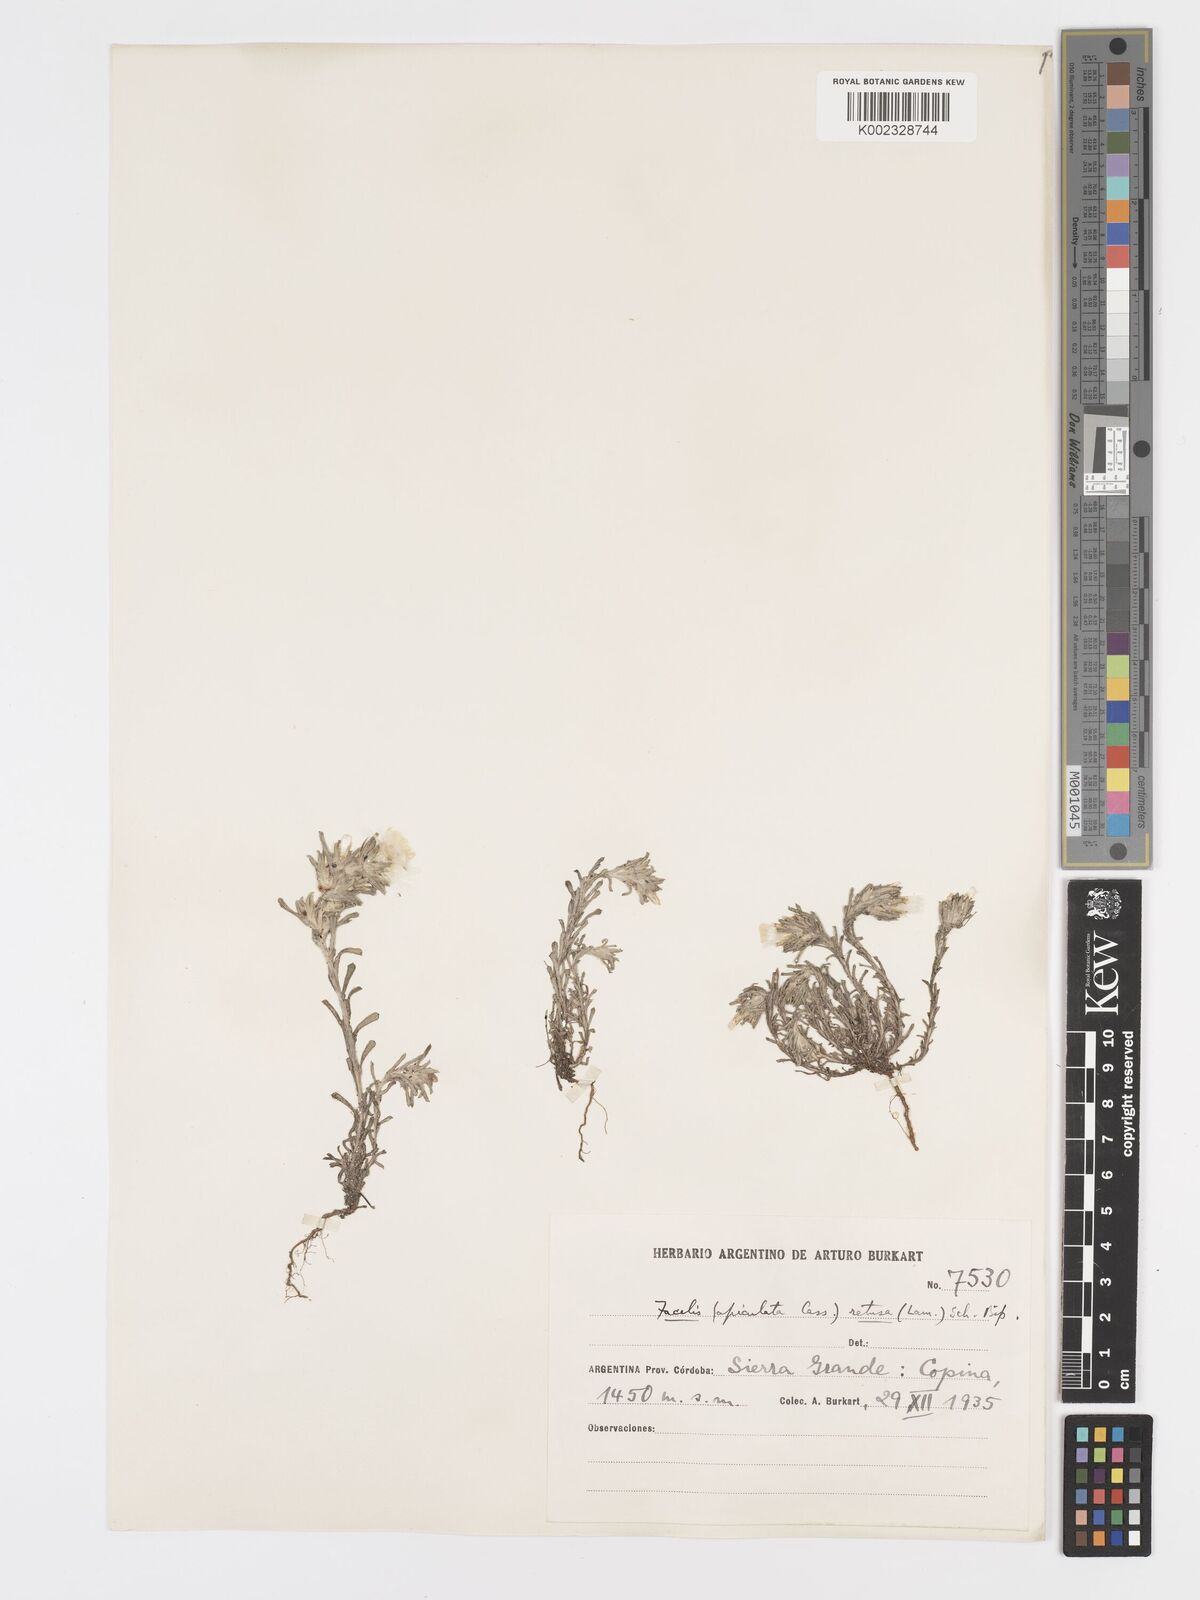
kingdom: Plantae
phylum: Tracheophyta
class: Magnoliopsida
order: Asterales
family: Asteraceae
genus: Facelis
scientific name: Facelis retusa
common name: Annual trampweed
